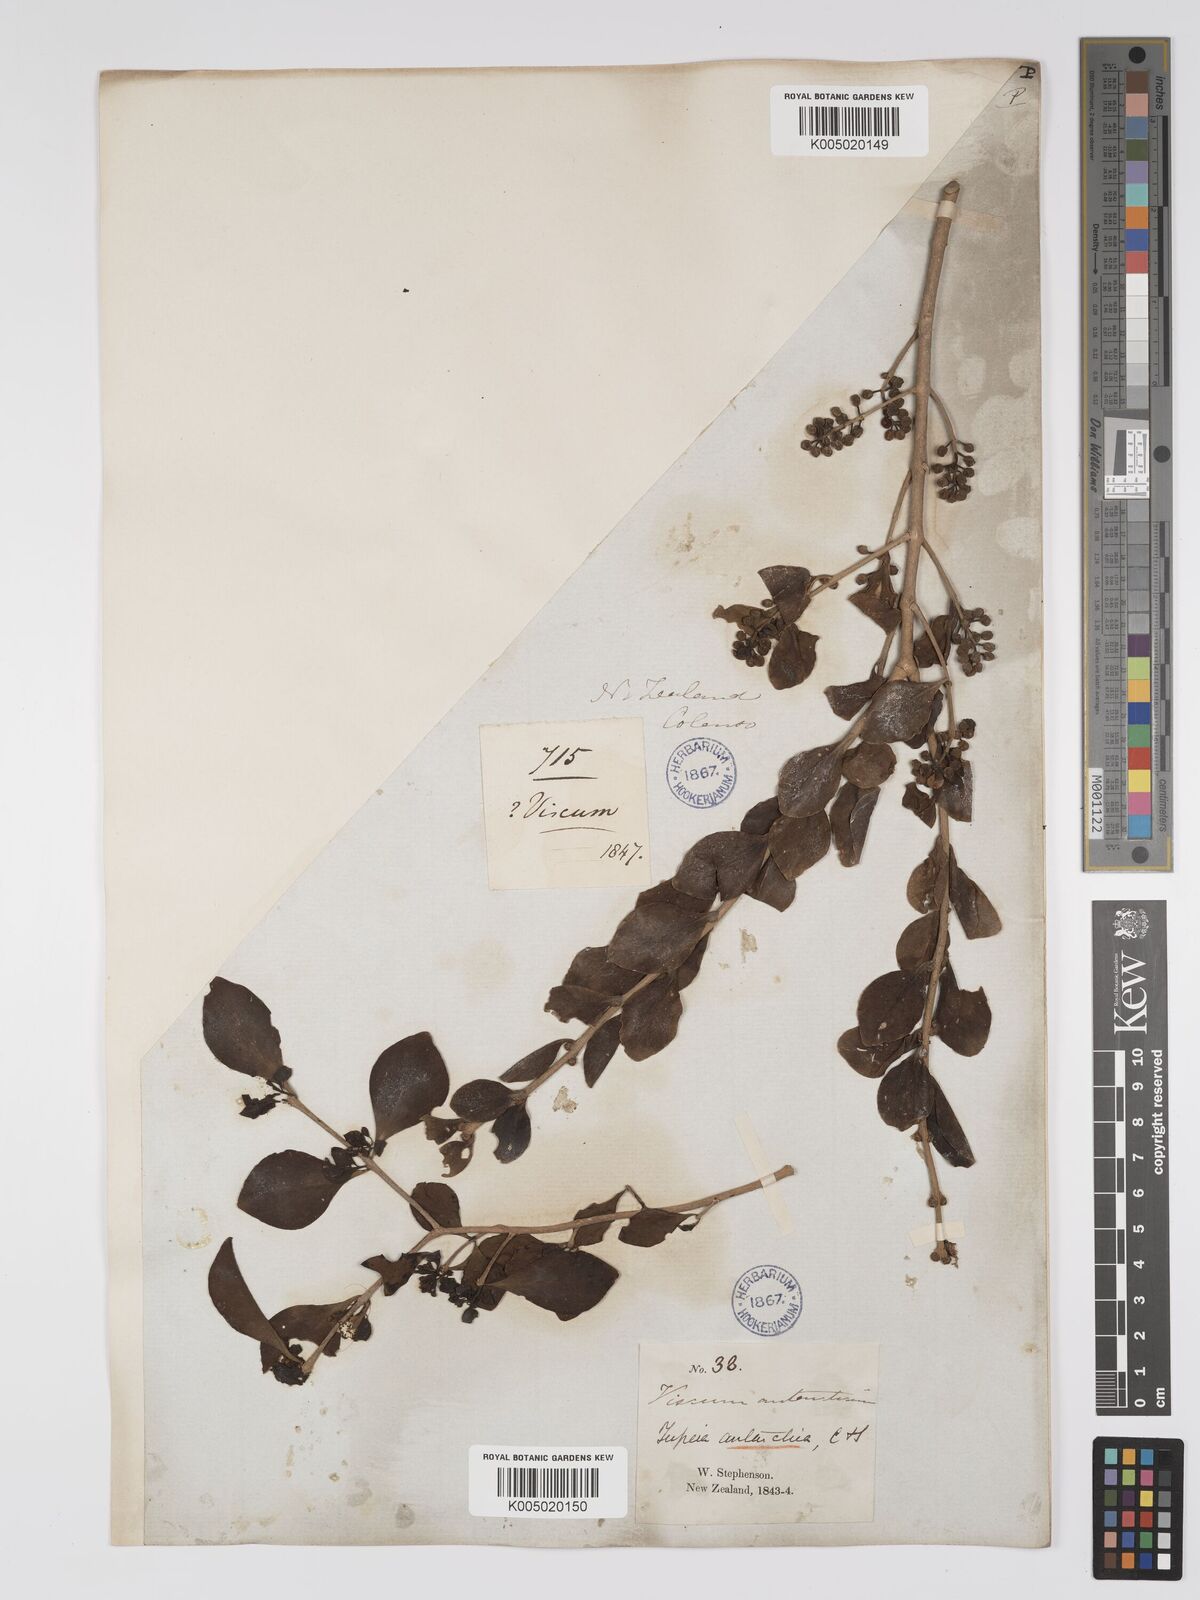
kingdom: Plantae
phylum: Tracheophyta
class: Magnoliopsida
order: Santalales
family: Loranthaceae
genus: Tupeia
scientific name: Tupeia antarctica
